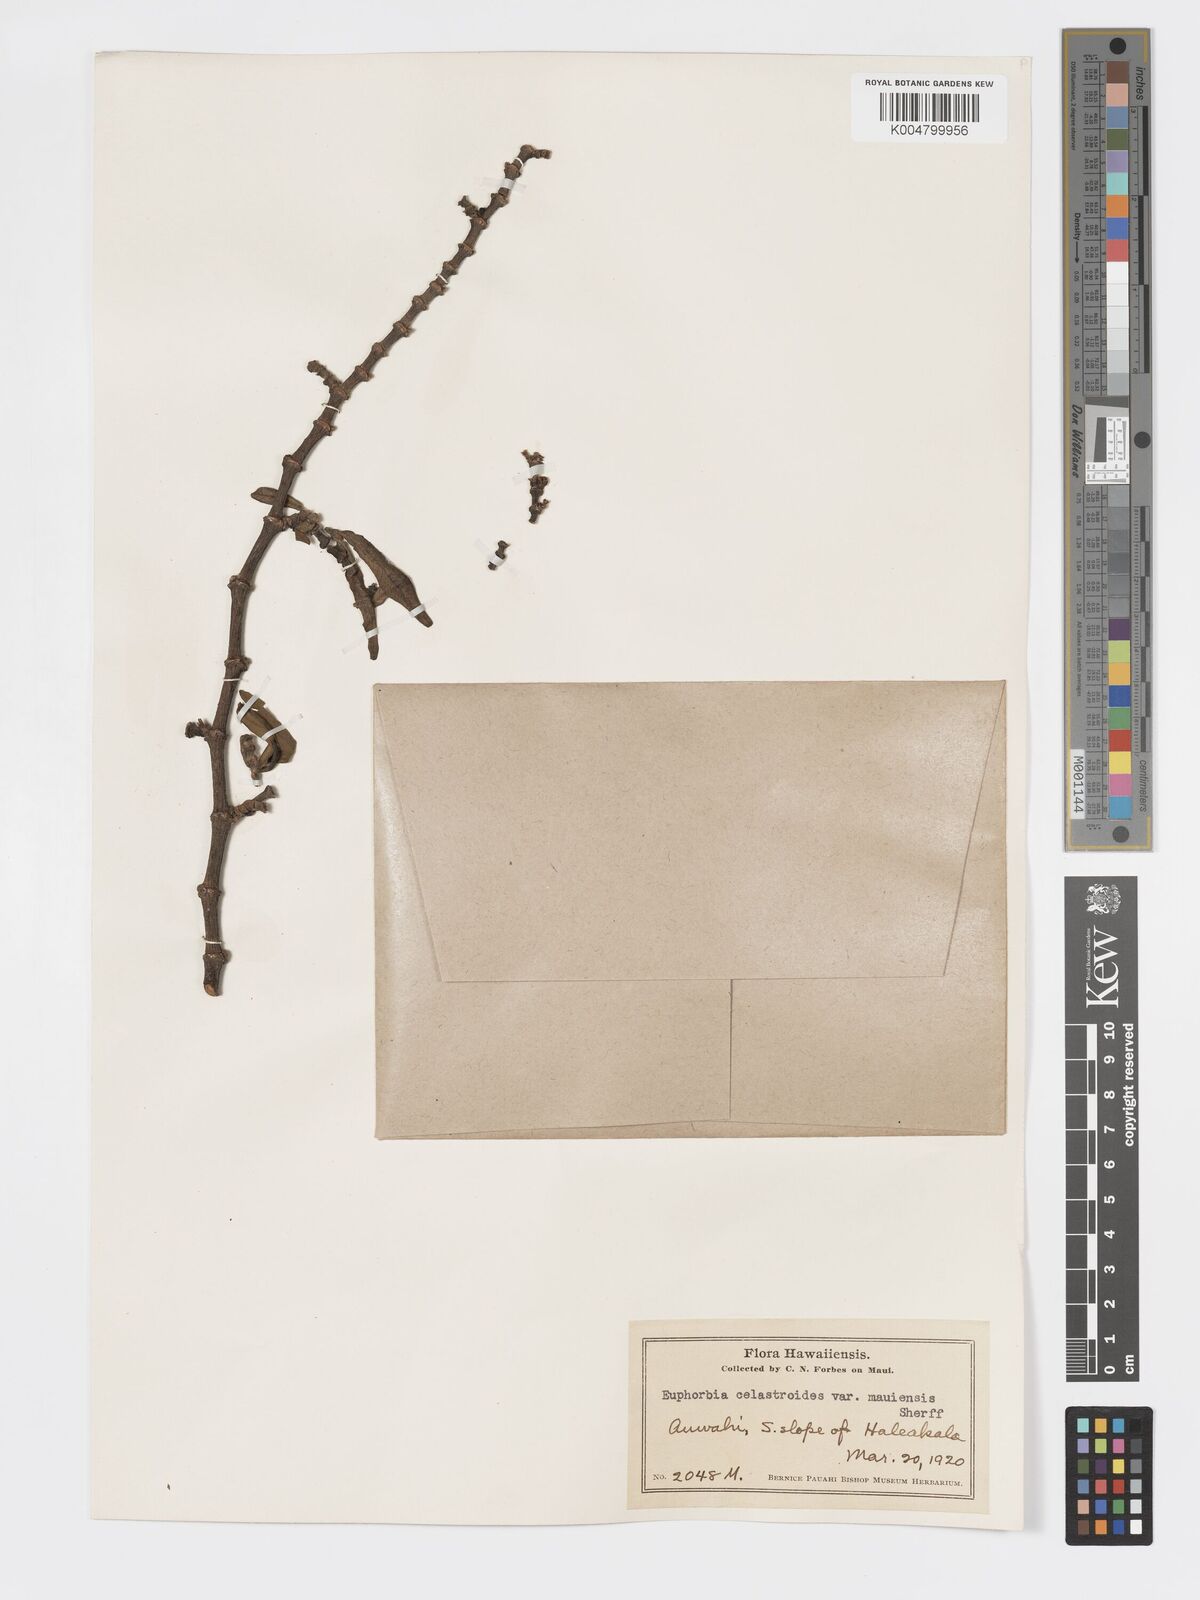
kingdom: Plantae
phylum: Tracheophyta
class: Magnoliopsida
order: Malpighiales
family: Euphorbiaceae
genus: Euphorbia
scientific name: Euphorbia celastroides
